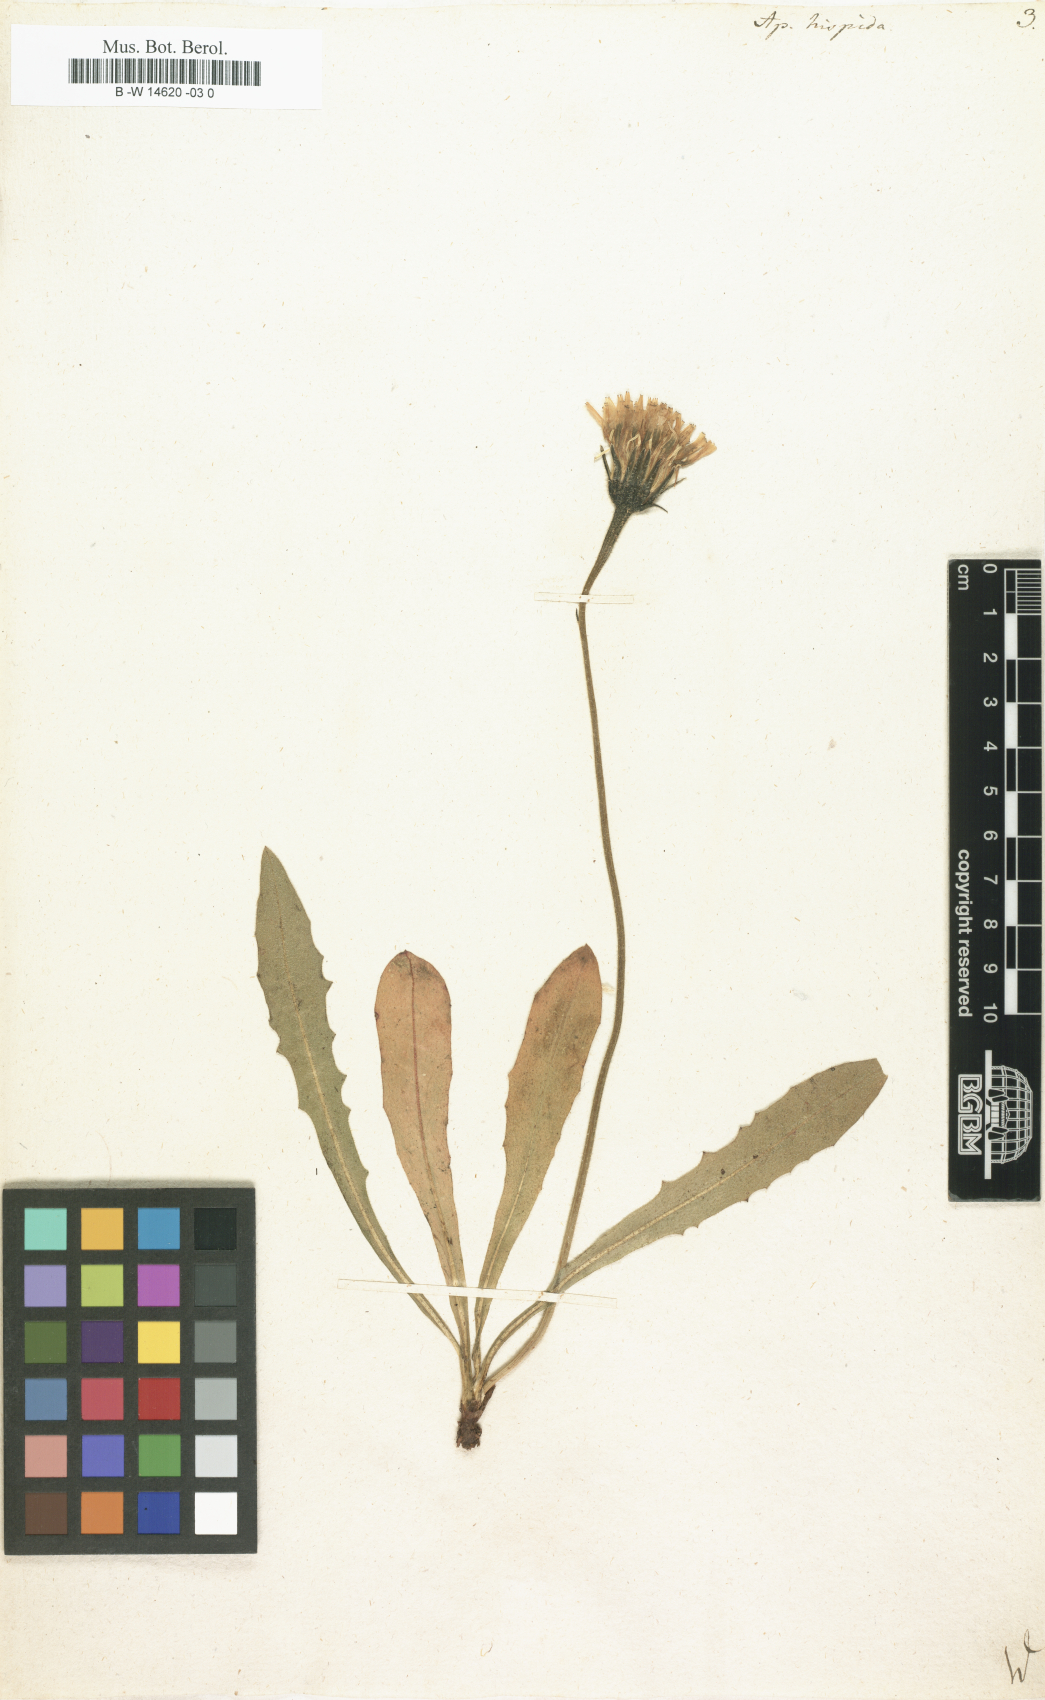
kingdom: Plantae
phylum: Tracheophyta
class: Magnoliopsida
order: Asterales
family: Asteraceae
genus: Leontodon
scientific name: Leontodon
